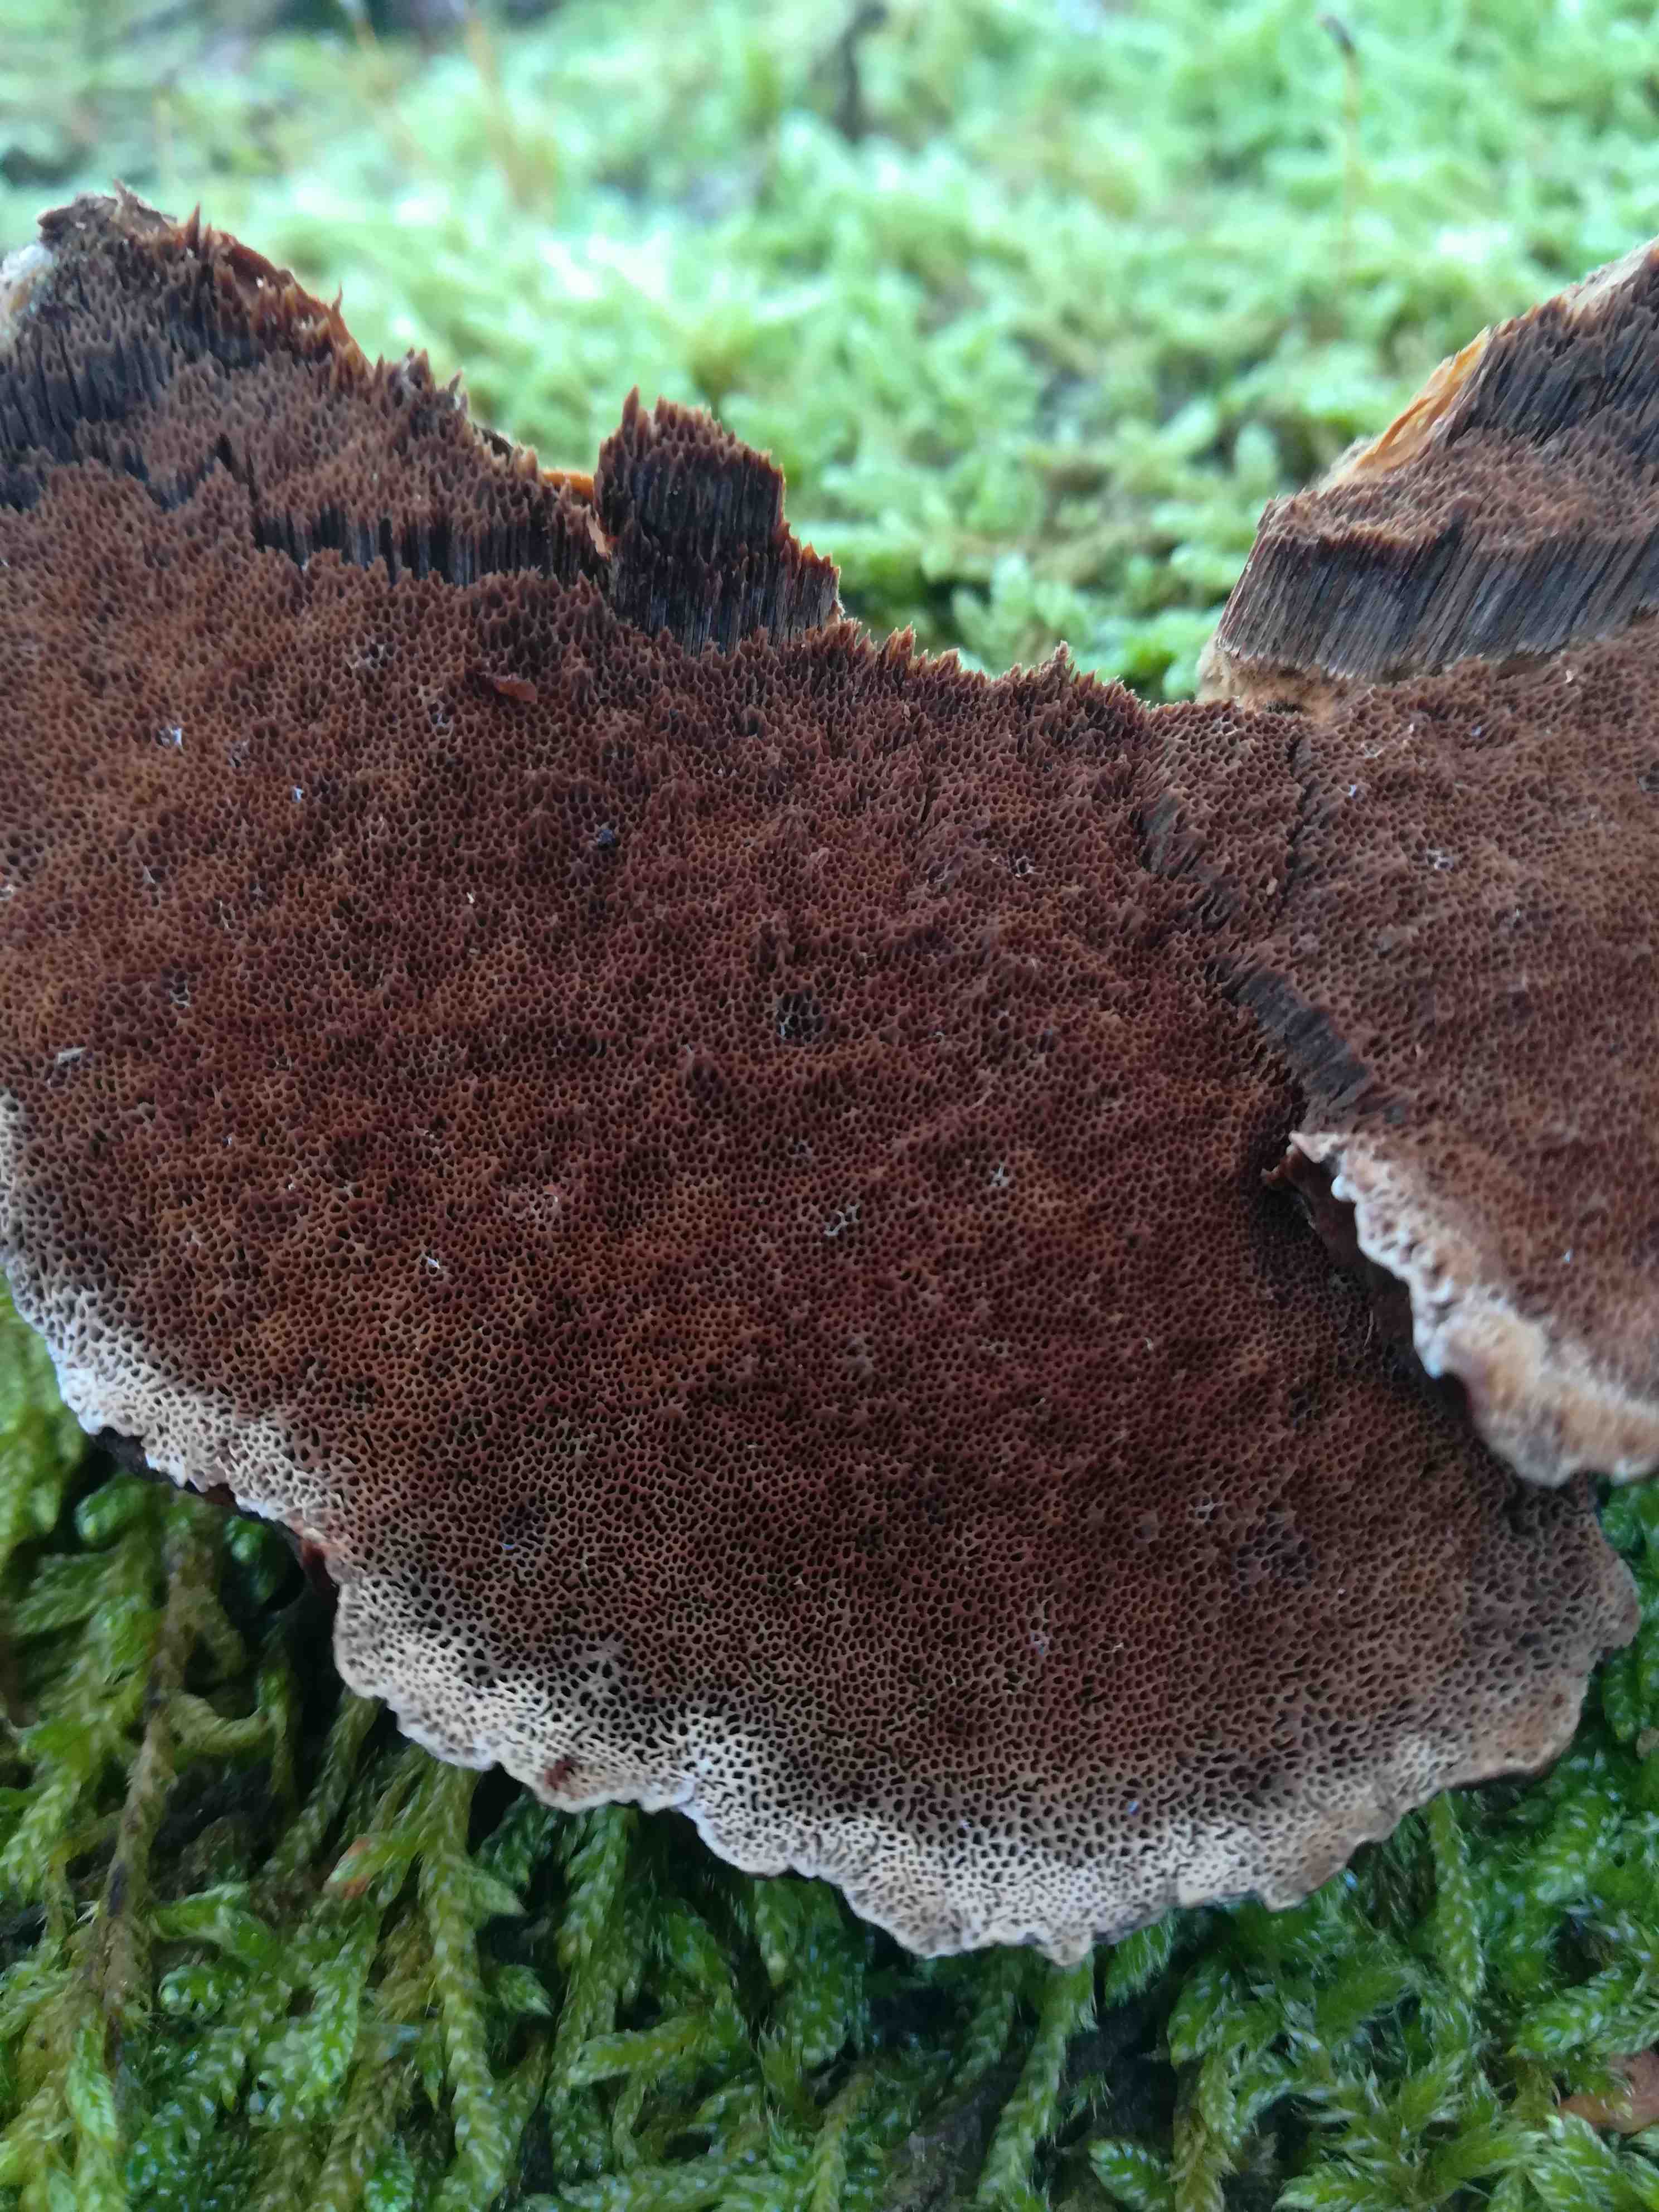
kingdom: Fungi
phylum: Basidiomycota
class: Agaricomycetes
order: Polyporales
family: Ischnodermataceae
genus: Ischnoderma
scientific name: Ischnoderma benzoinum
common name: gran-tjæreporesvamp
